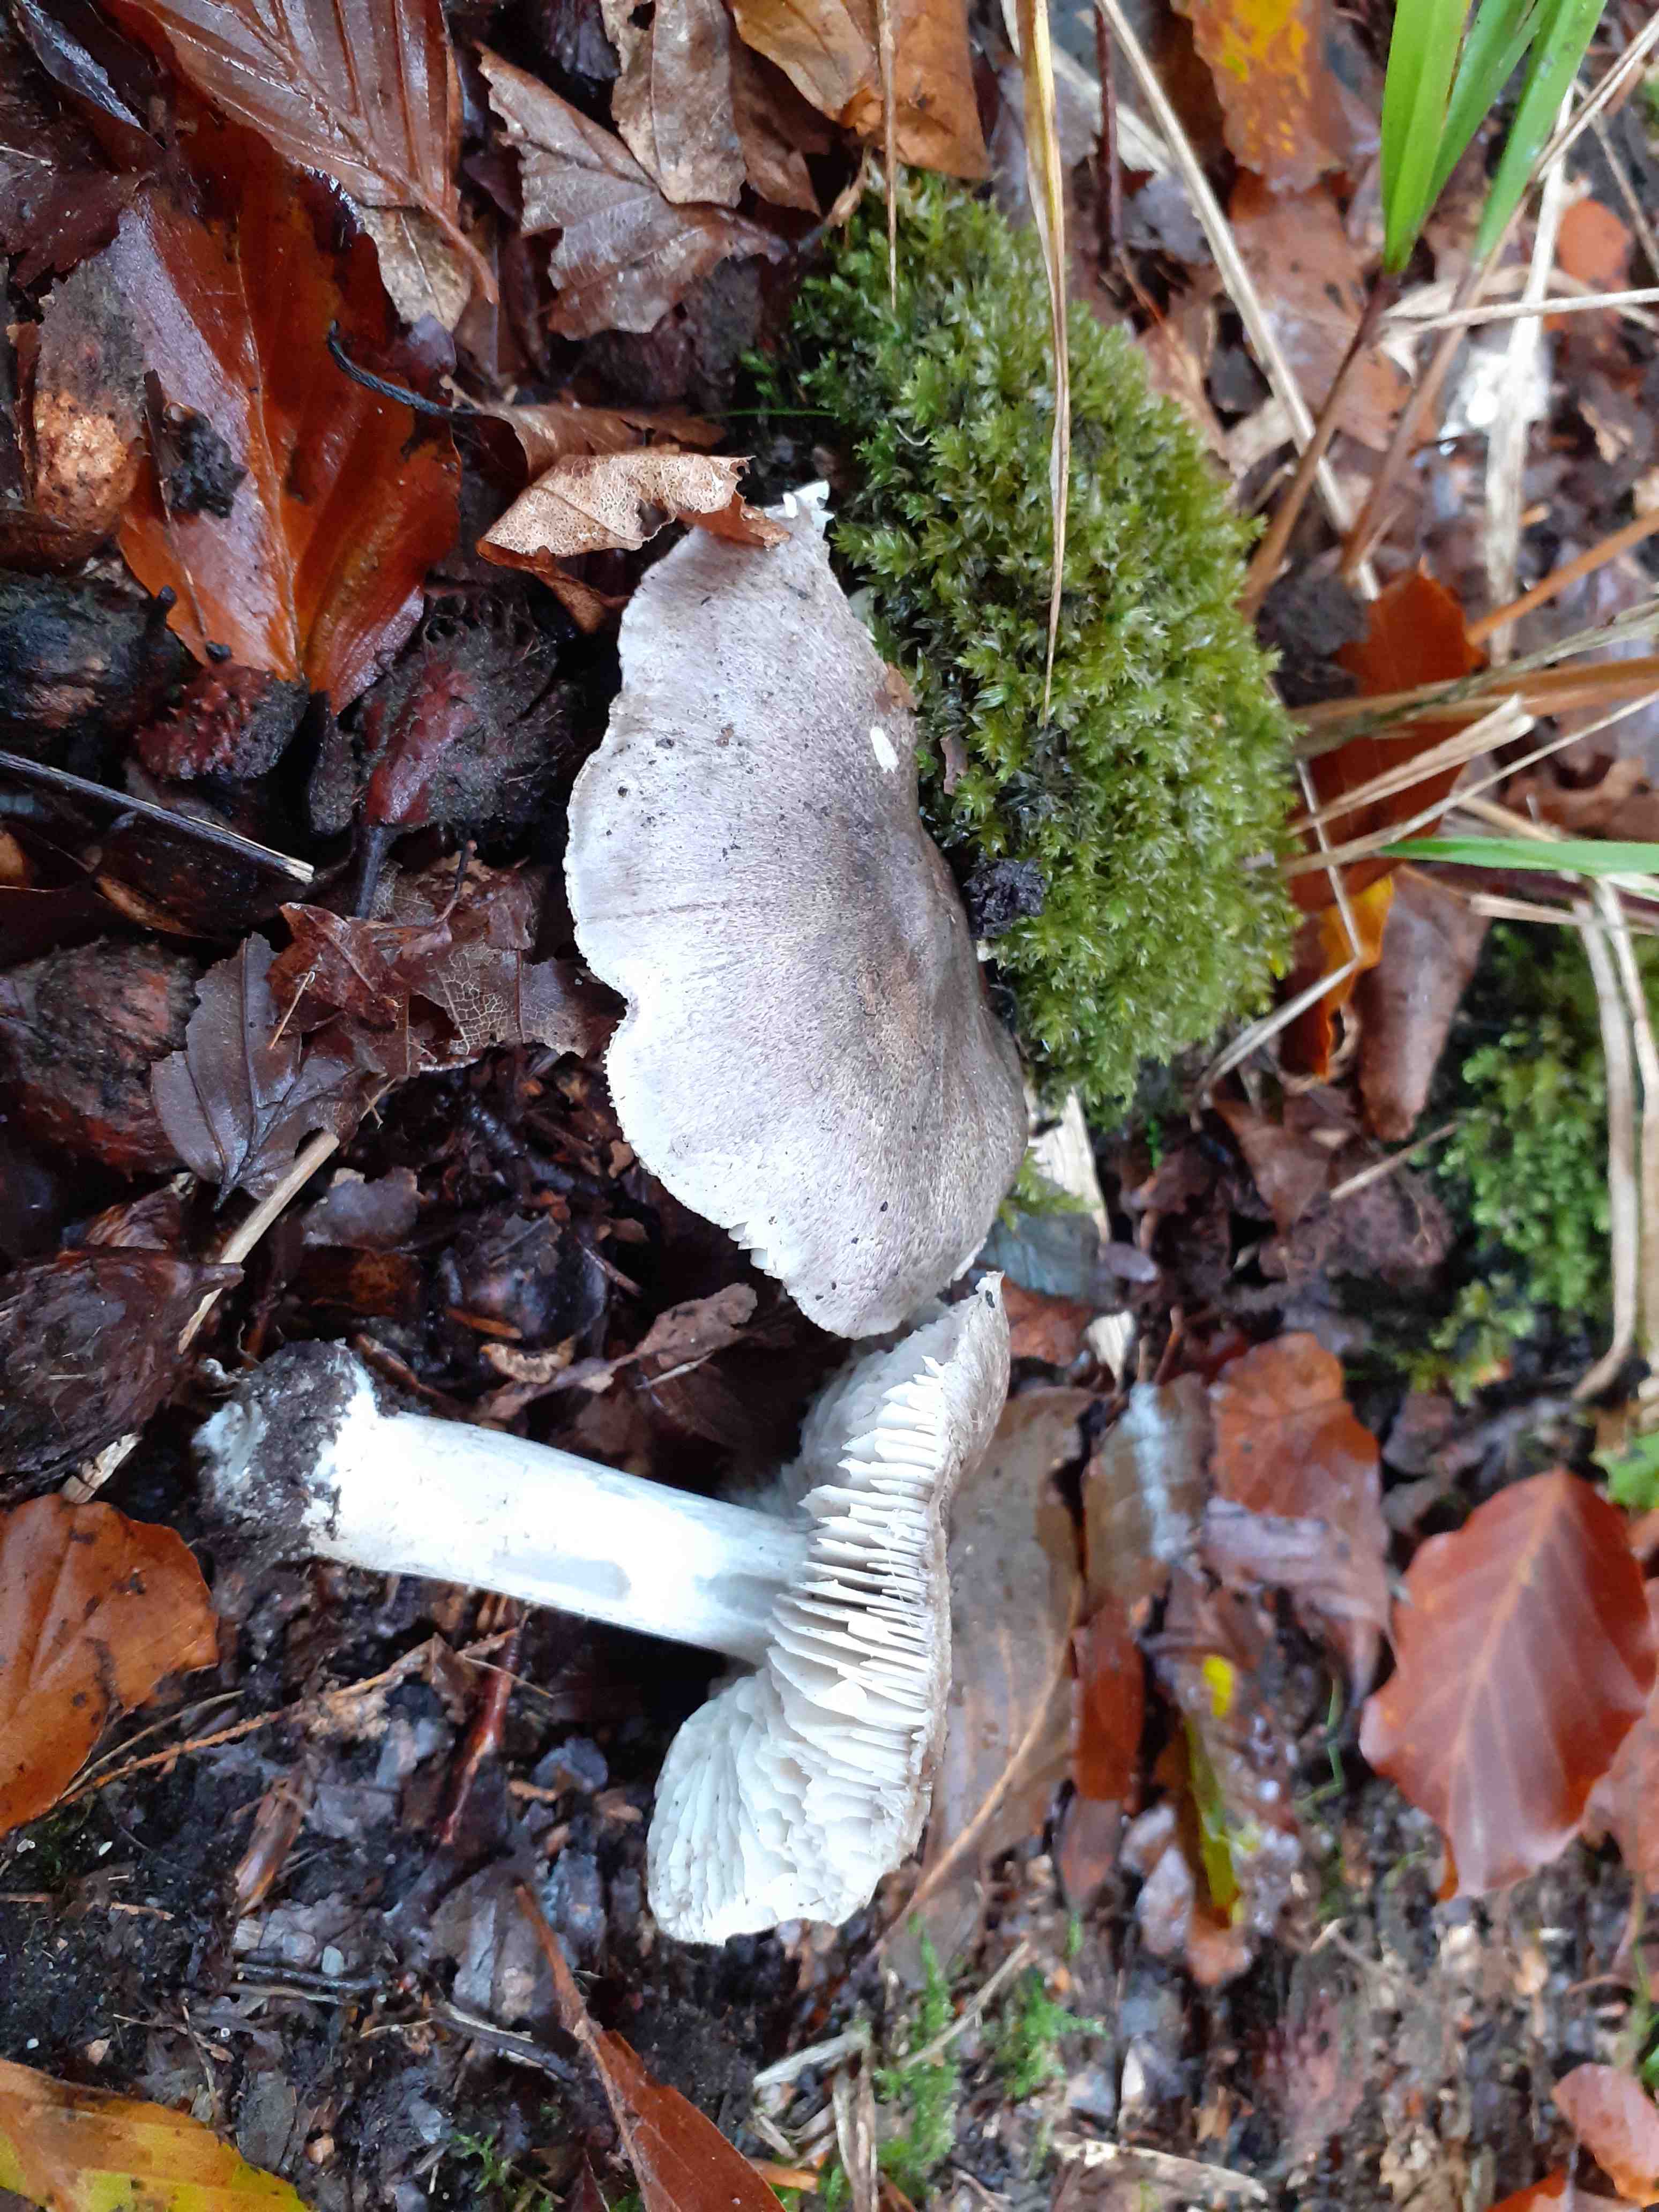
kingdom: Fungi
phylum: Basidiomycota
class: Agaricomycetes
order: Agaricales
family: Tricholomataceae
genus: Tricholoma
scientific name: Tricholoma sciodes
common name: stribet ridderhat
